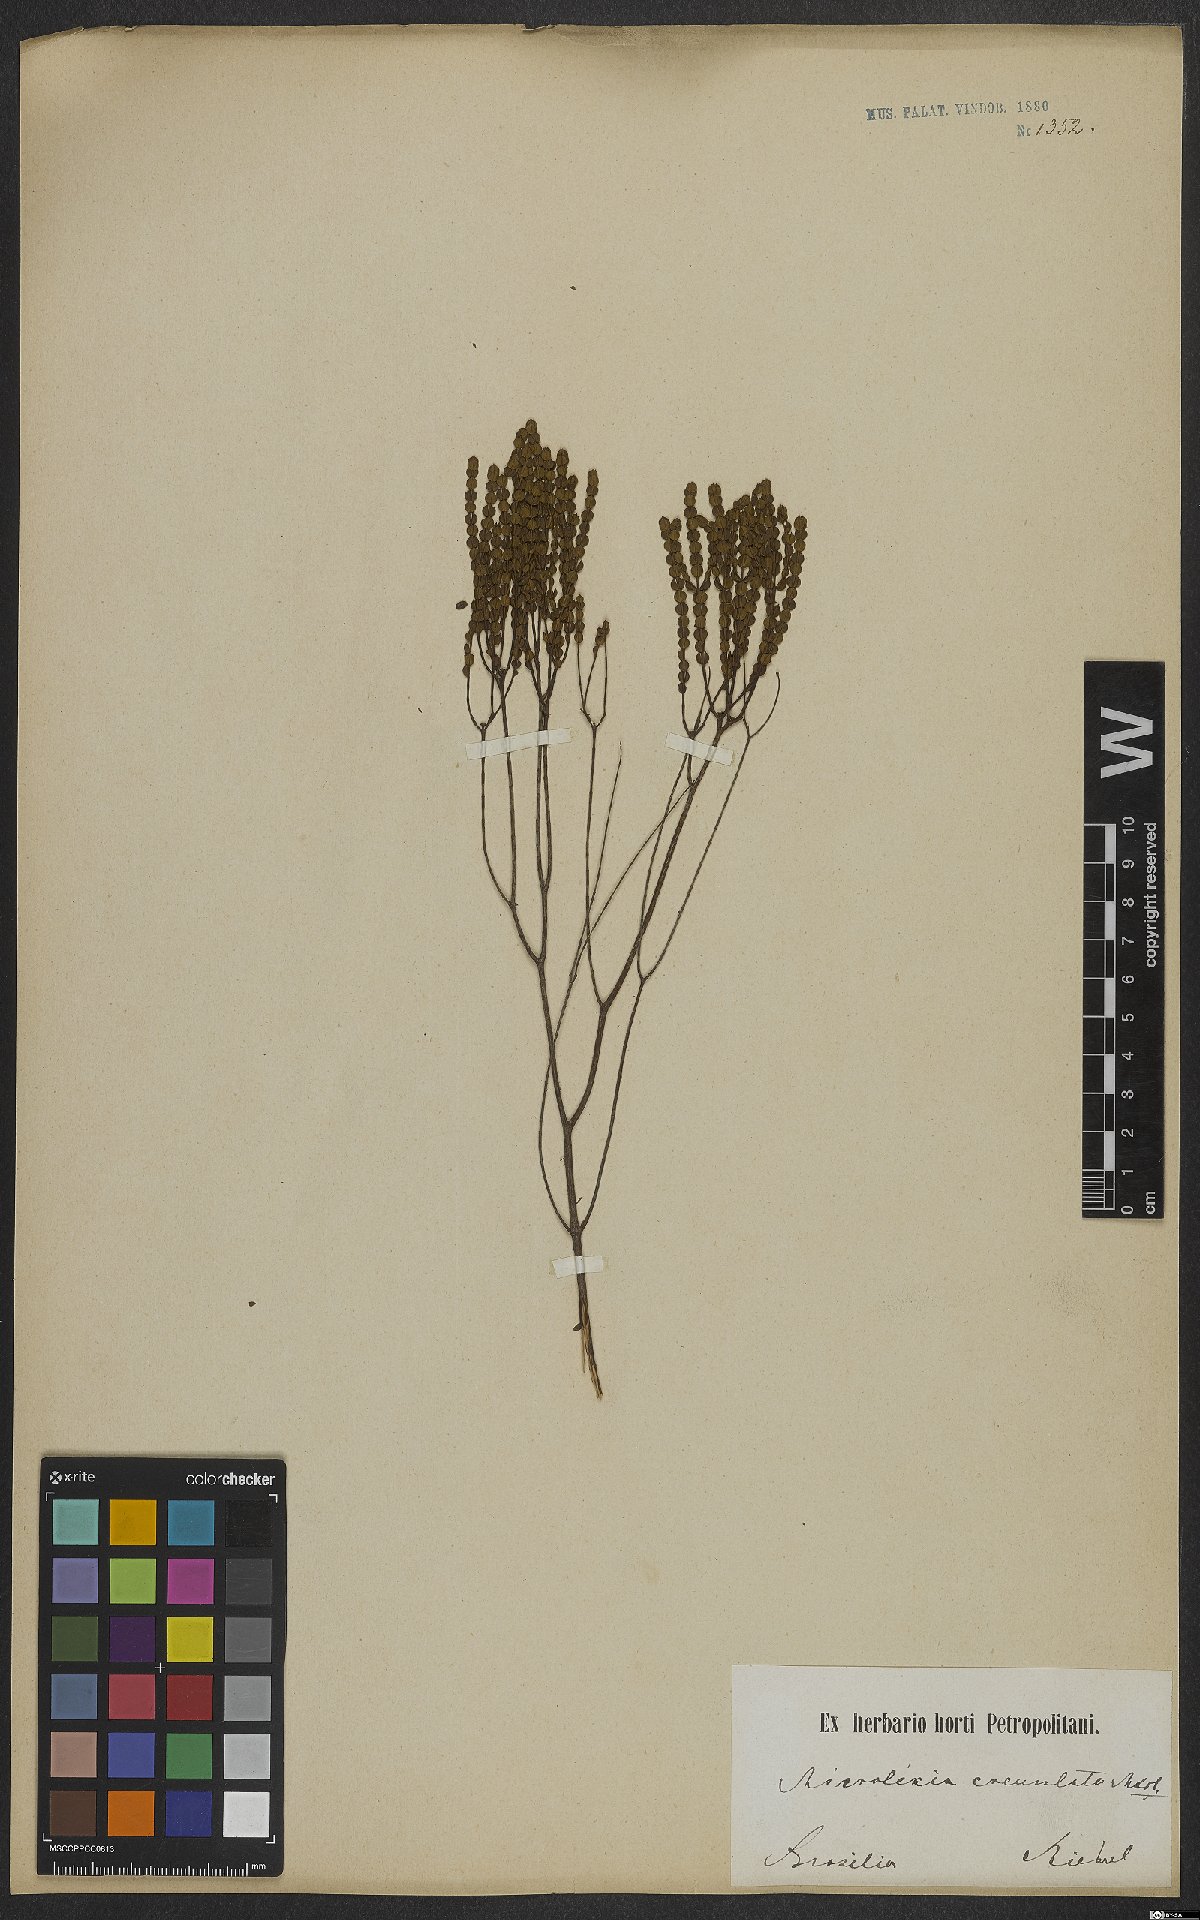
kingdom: Plantae
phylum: Tracheophyta
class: Magnoliopsida
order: Myrtales
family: Melastomataceae
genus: Microlicia
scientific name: Microlicia crenulata
